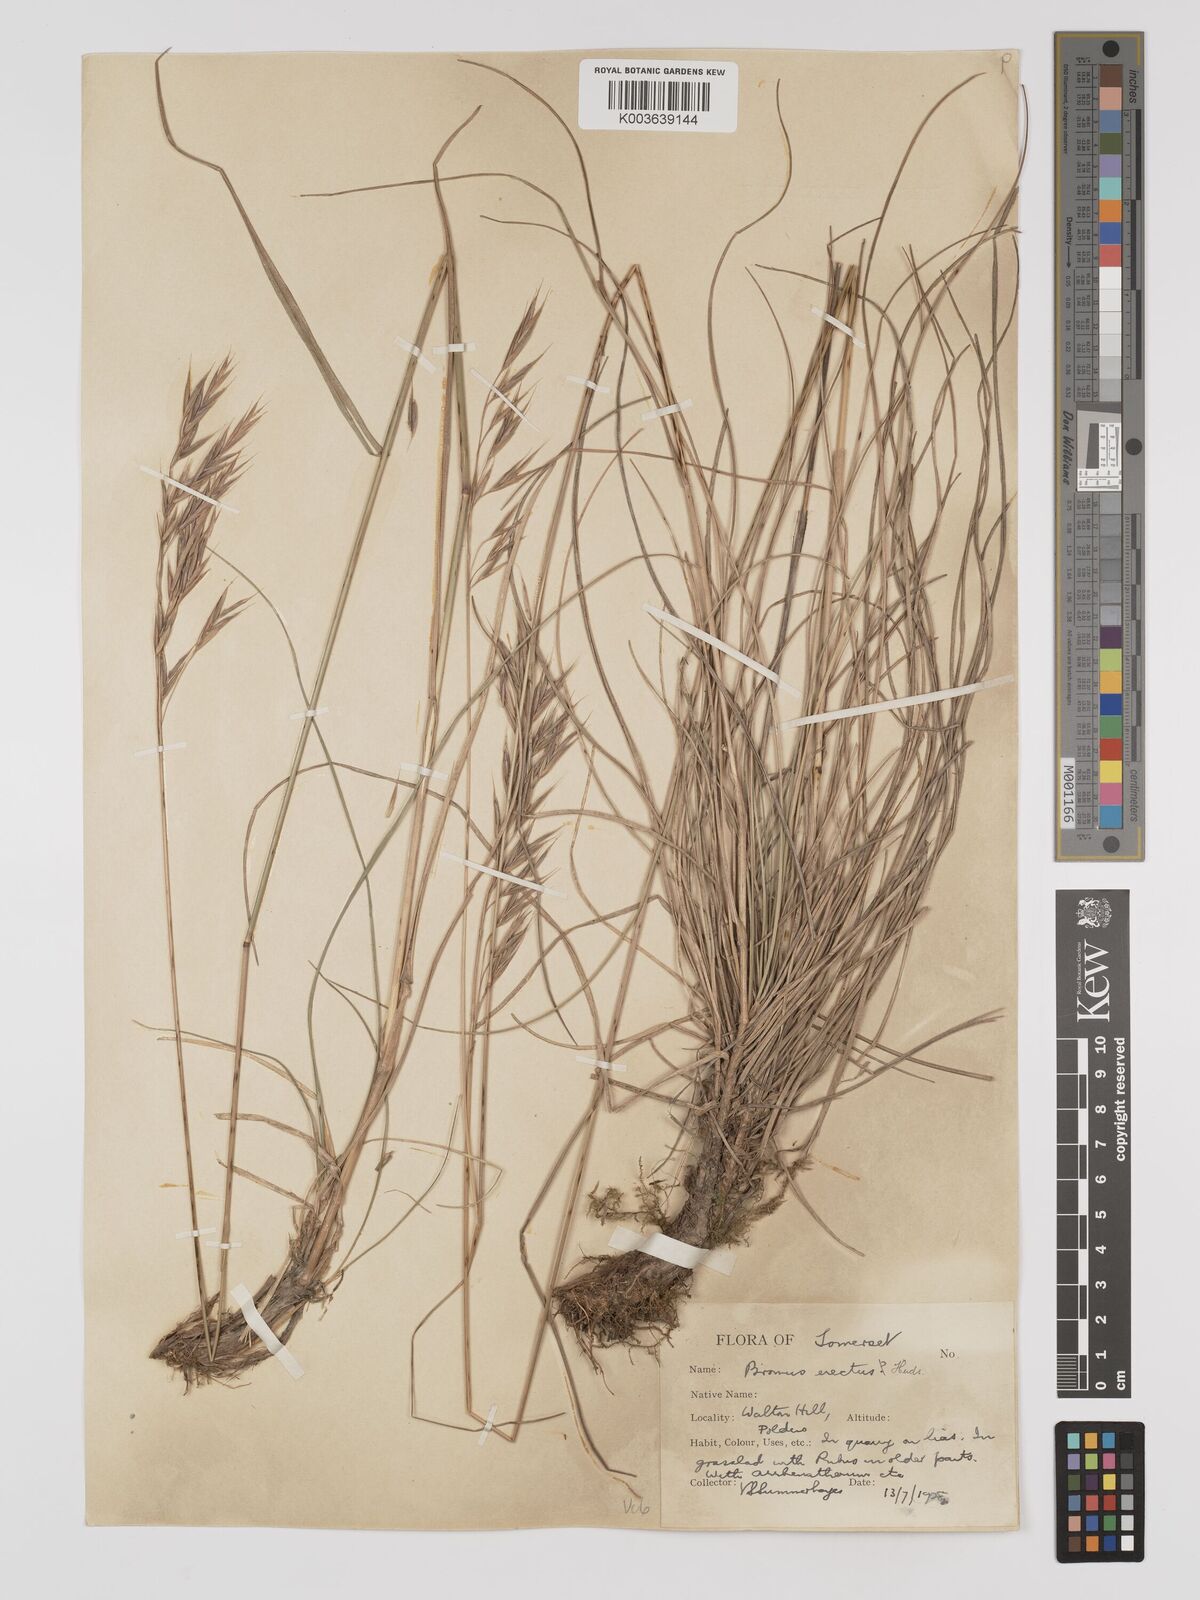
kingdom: Plantae
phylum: Tracheophyta
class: Liliopsida
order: Poales
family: Poaceae
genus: Bromus
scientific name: Bromus erectus
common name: Erect brome
